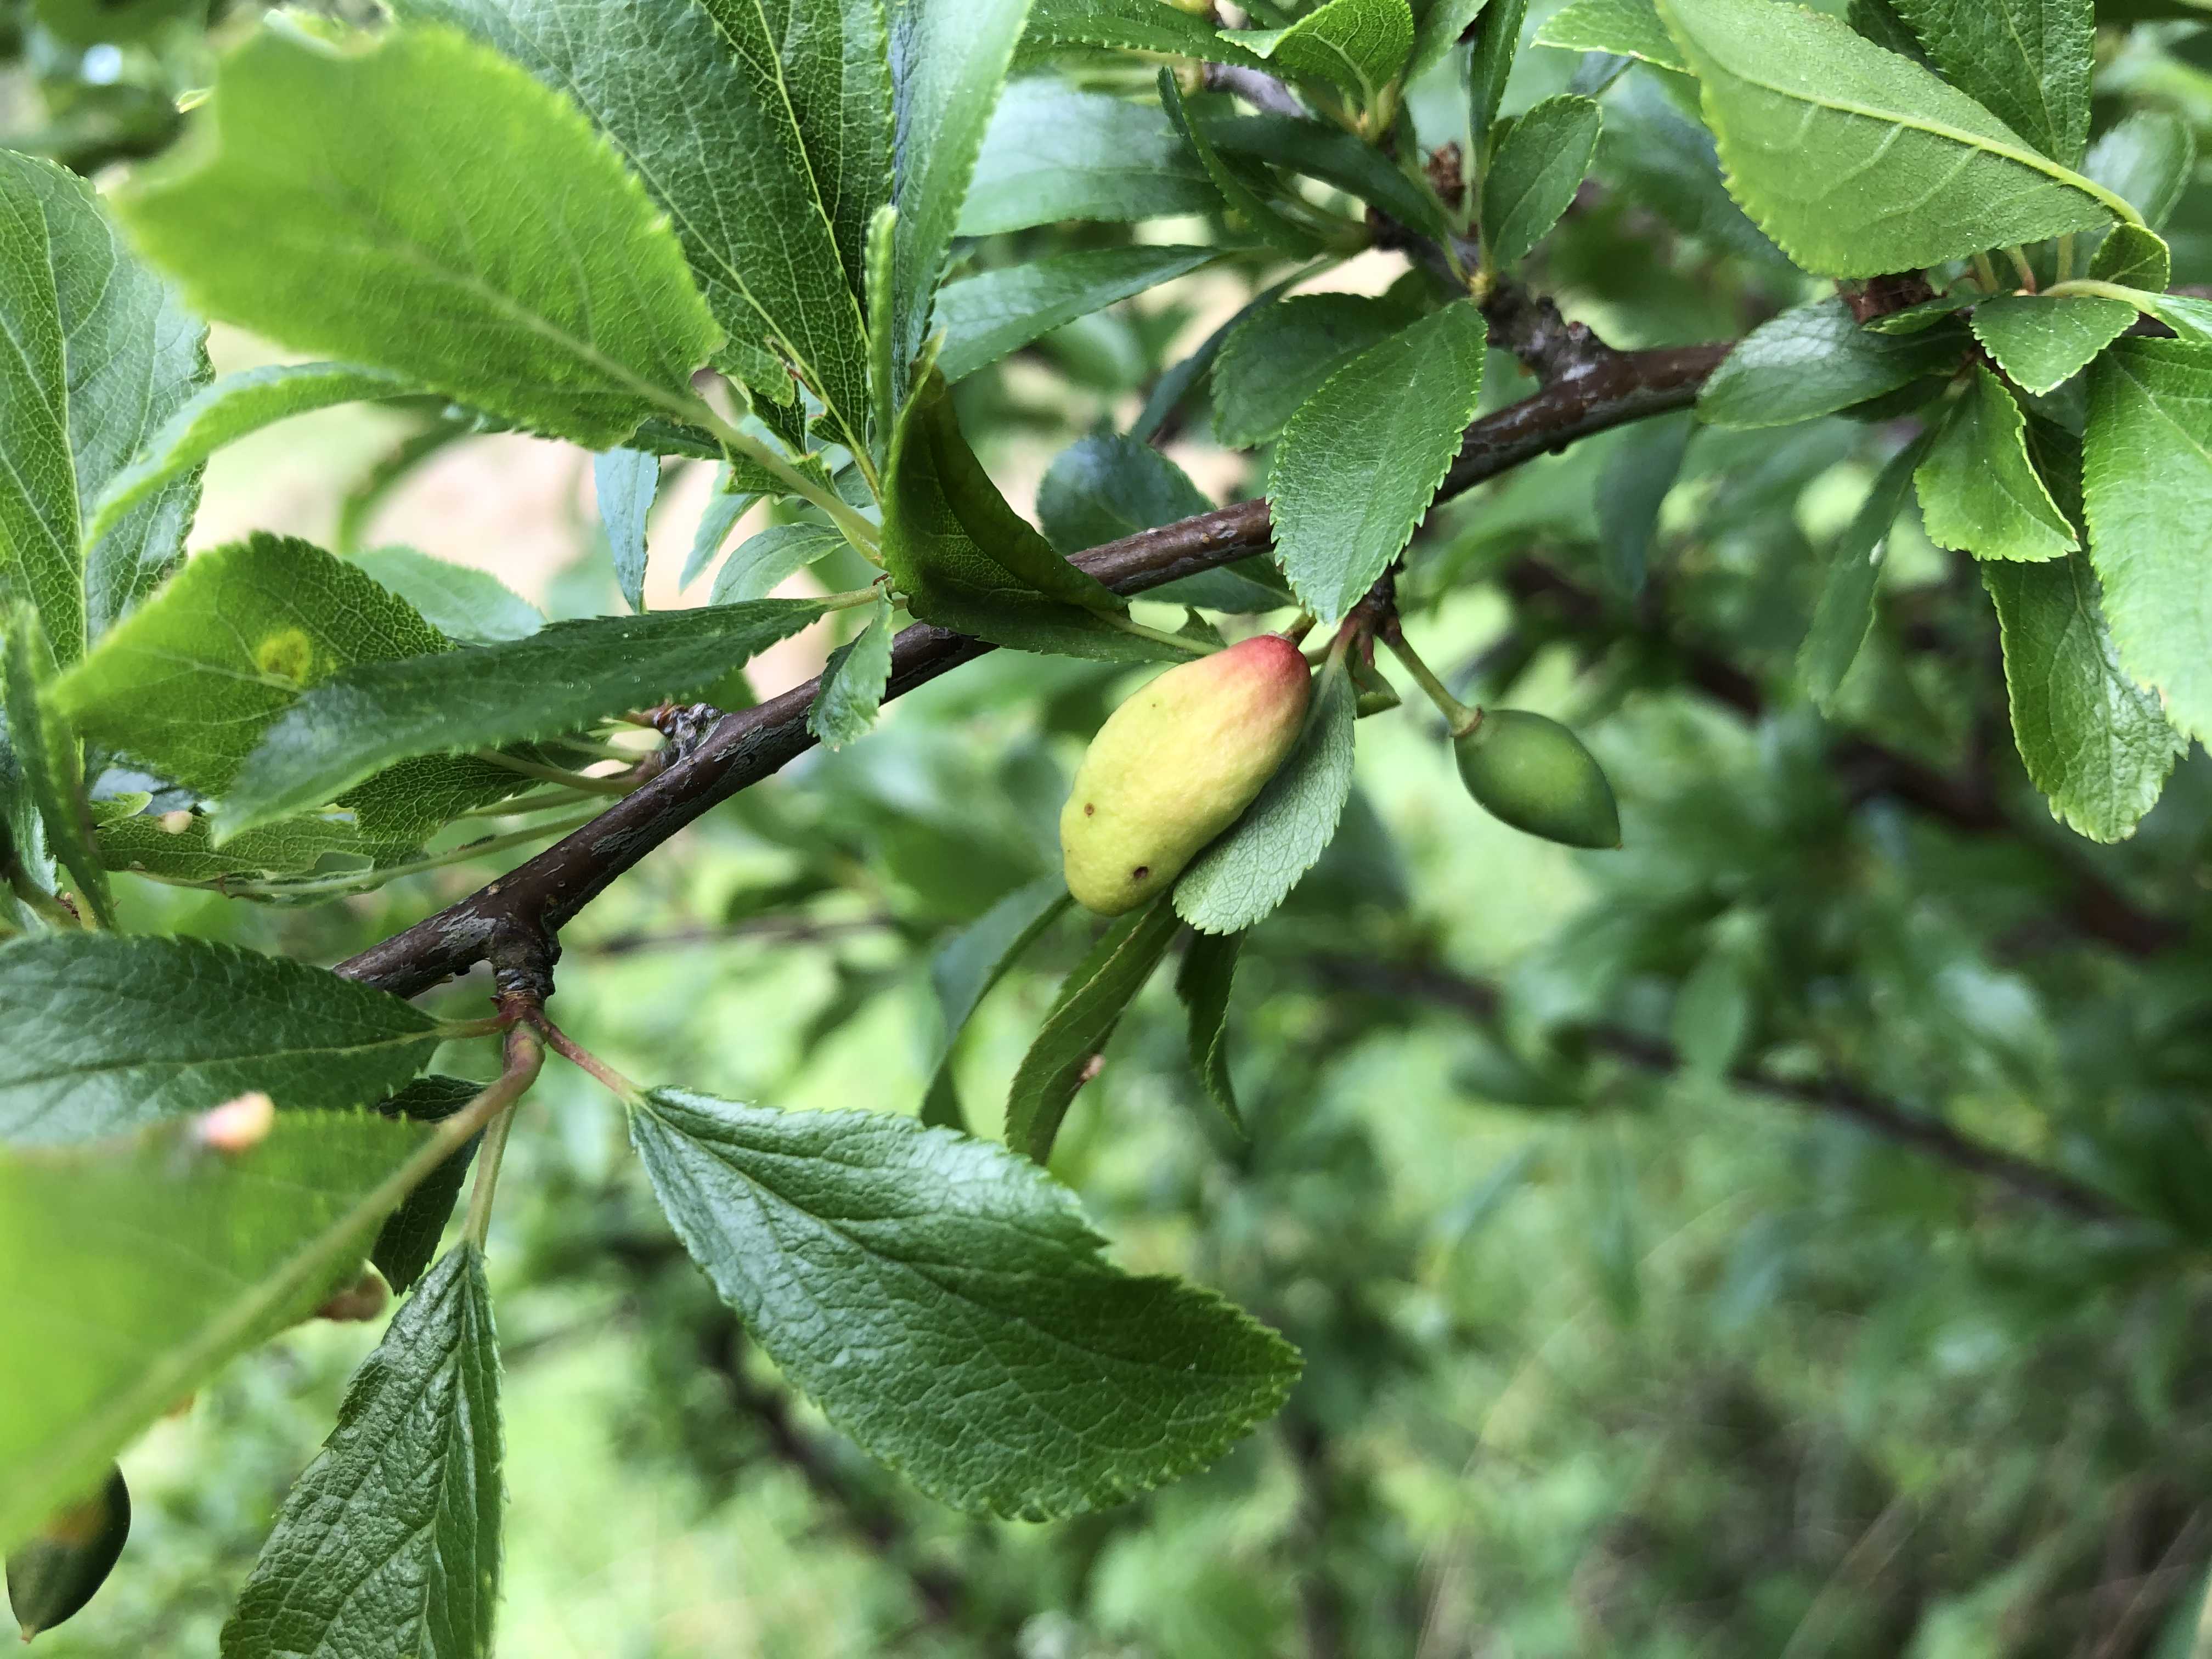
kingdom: Fungi
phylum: Ascomycota
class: Taphrinomycetes
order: Taphrinales
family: Taphrinaceae
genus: Taphrina
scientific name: Taphrina pruni
